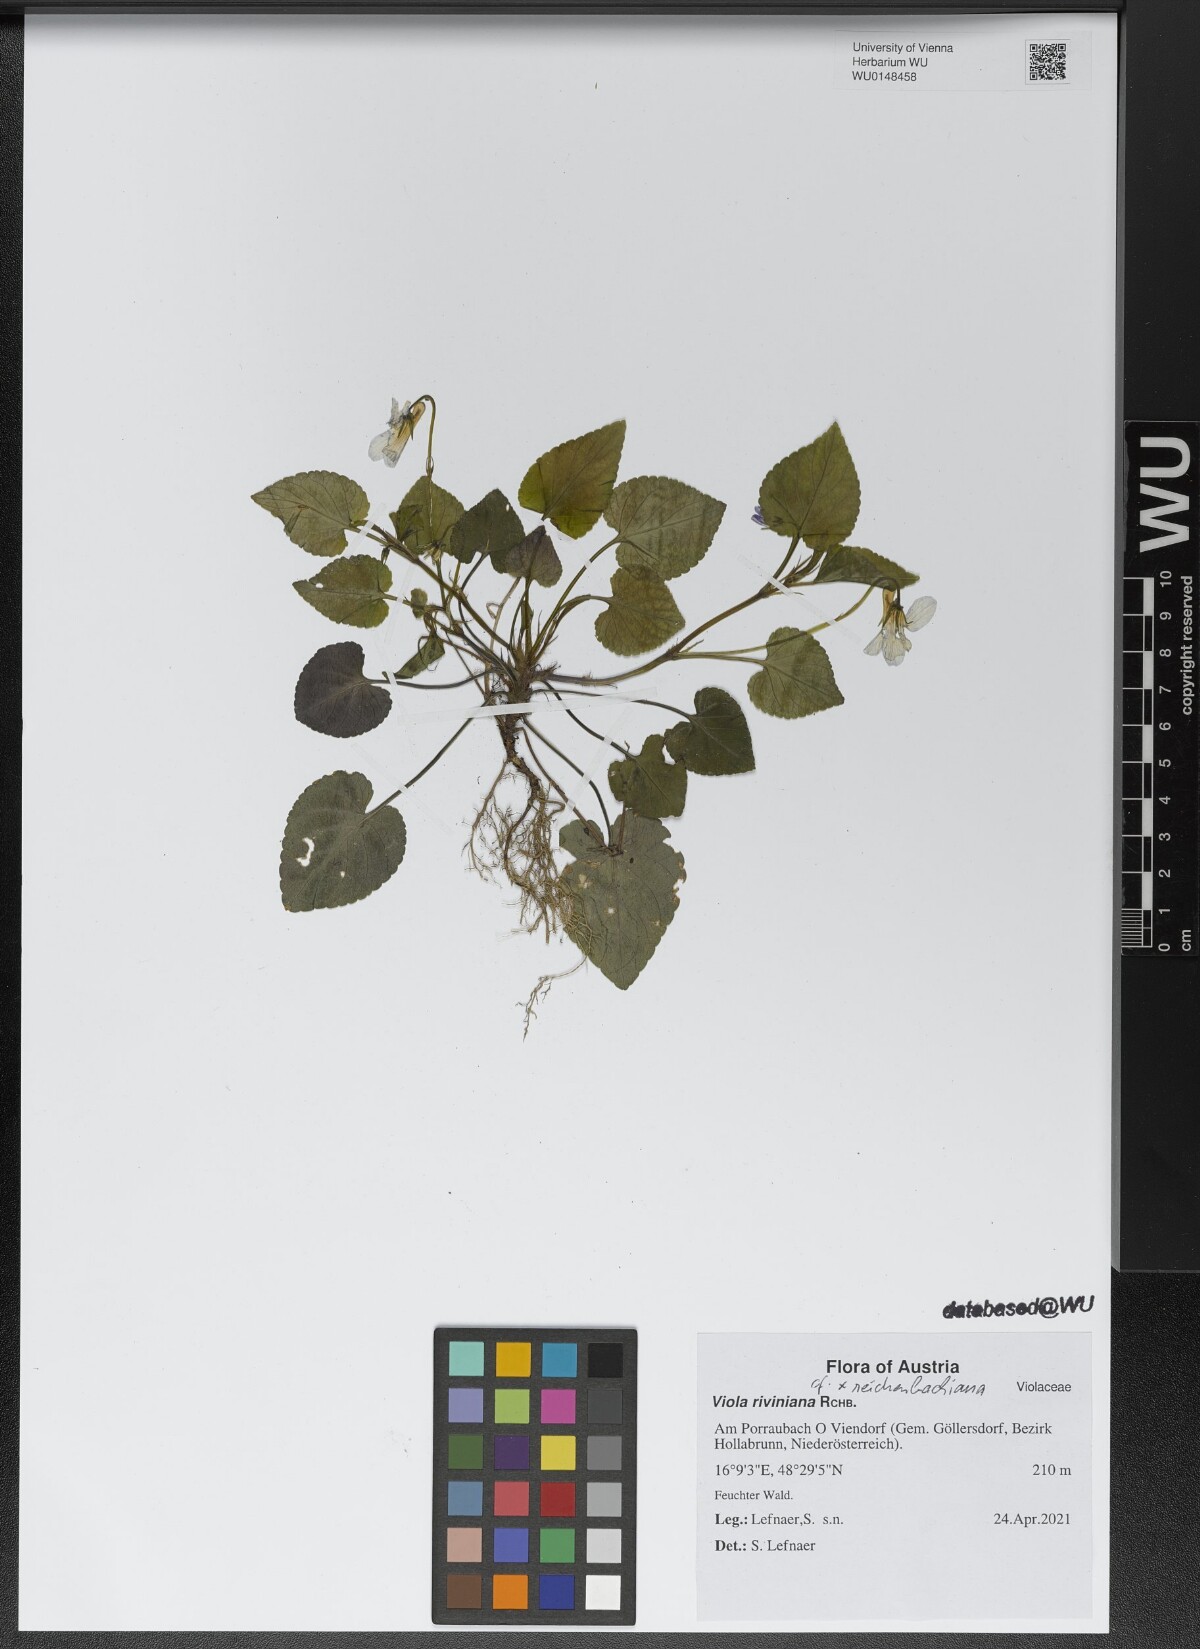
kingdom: Plantae
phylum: Tracheophyta
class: Magnoliopsida
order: Malpighiales
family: Violaceae
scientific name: Violaceae
